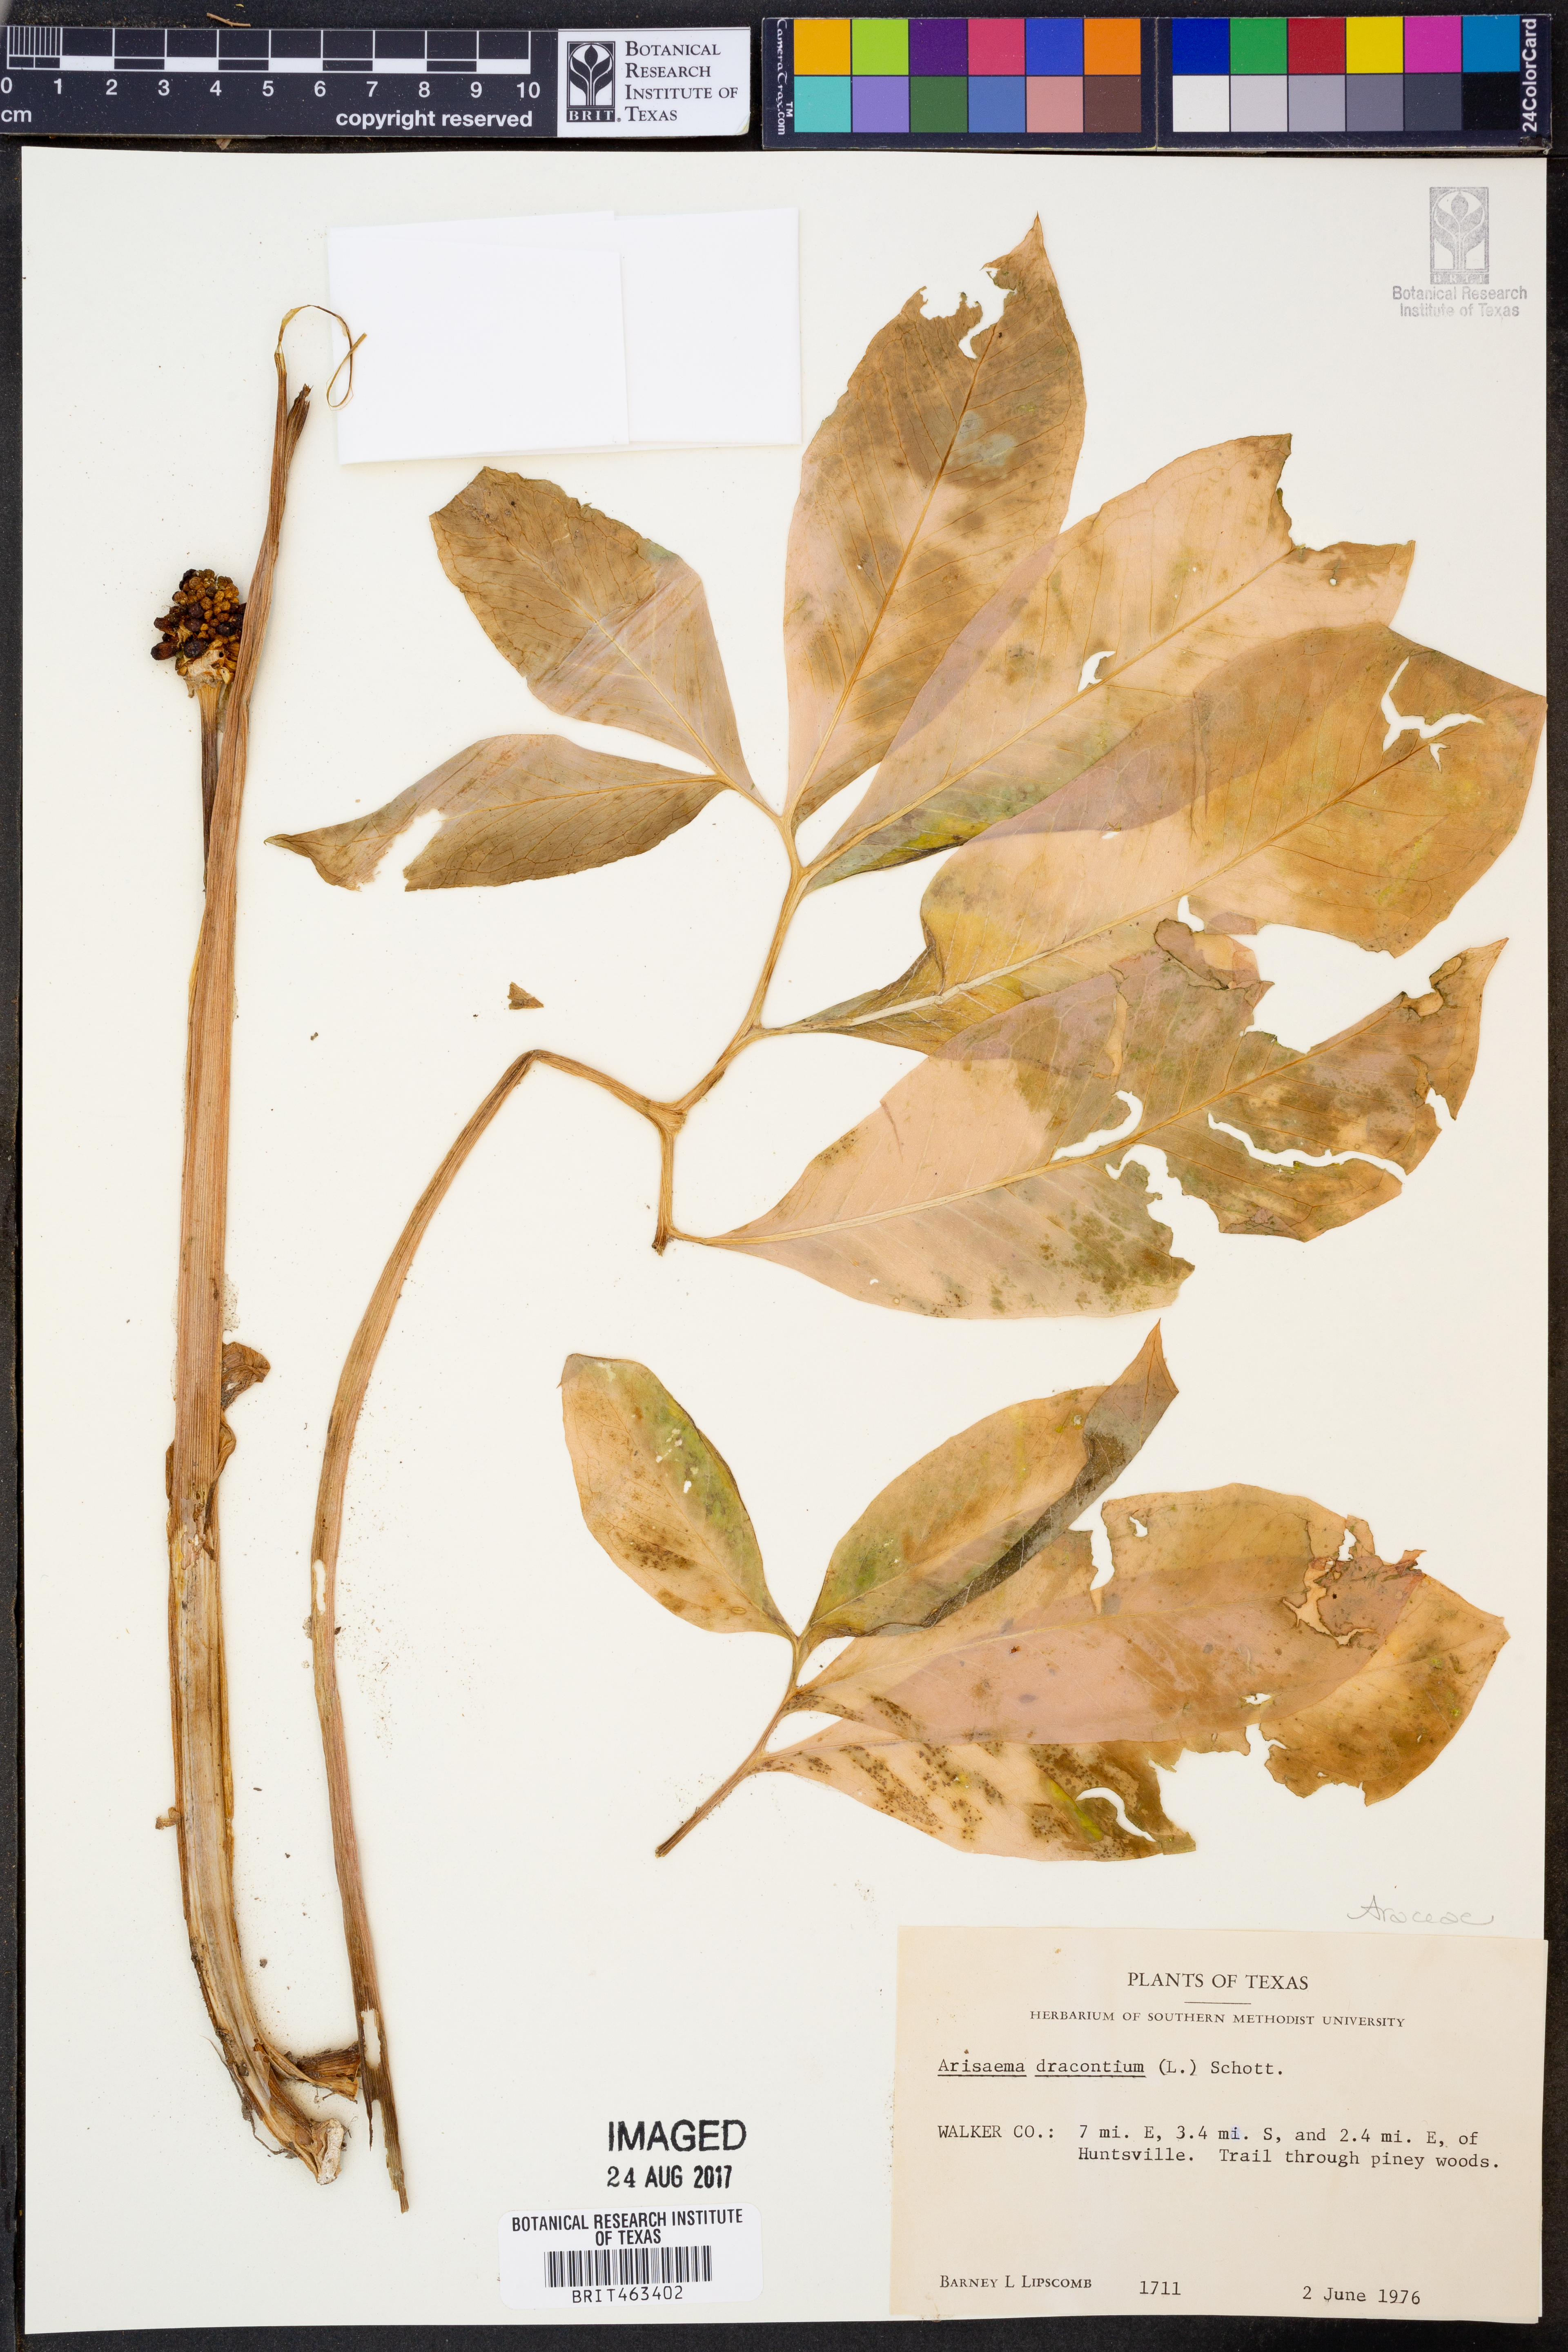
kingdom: Plantae
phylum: Tracheophyta
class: Liliopsida
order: Alismatales
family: Araceae
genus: Arisaema
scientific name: Arisaema dracontium
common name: Dragon-arum
